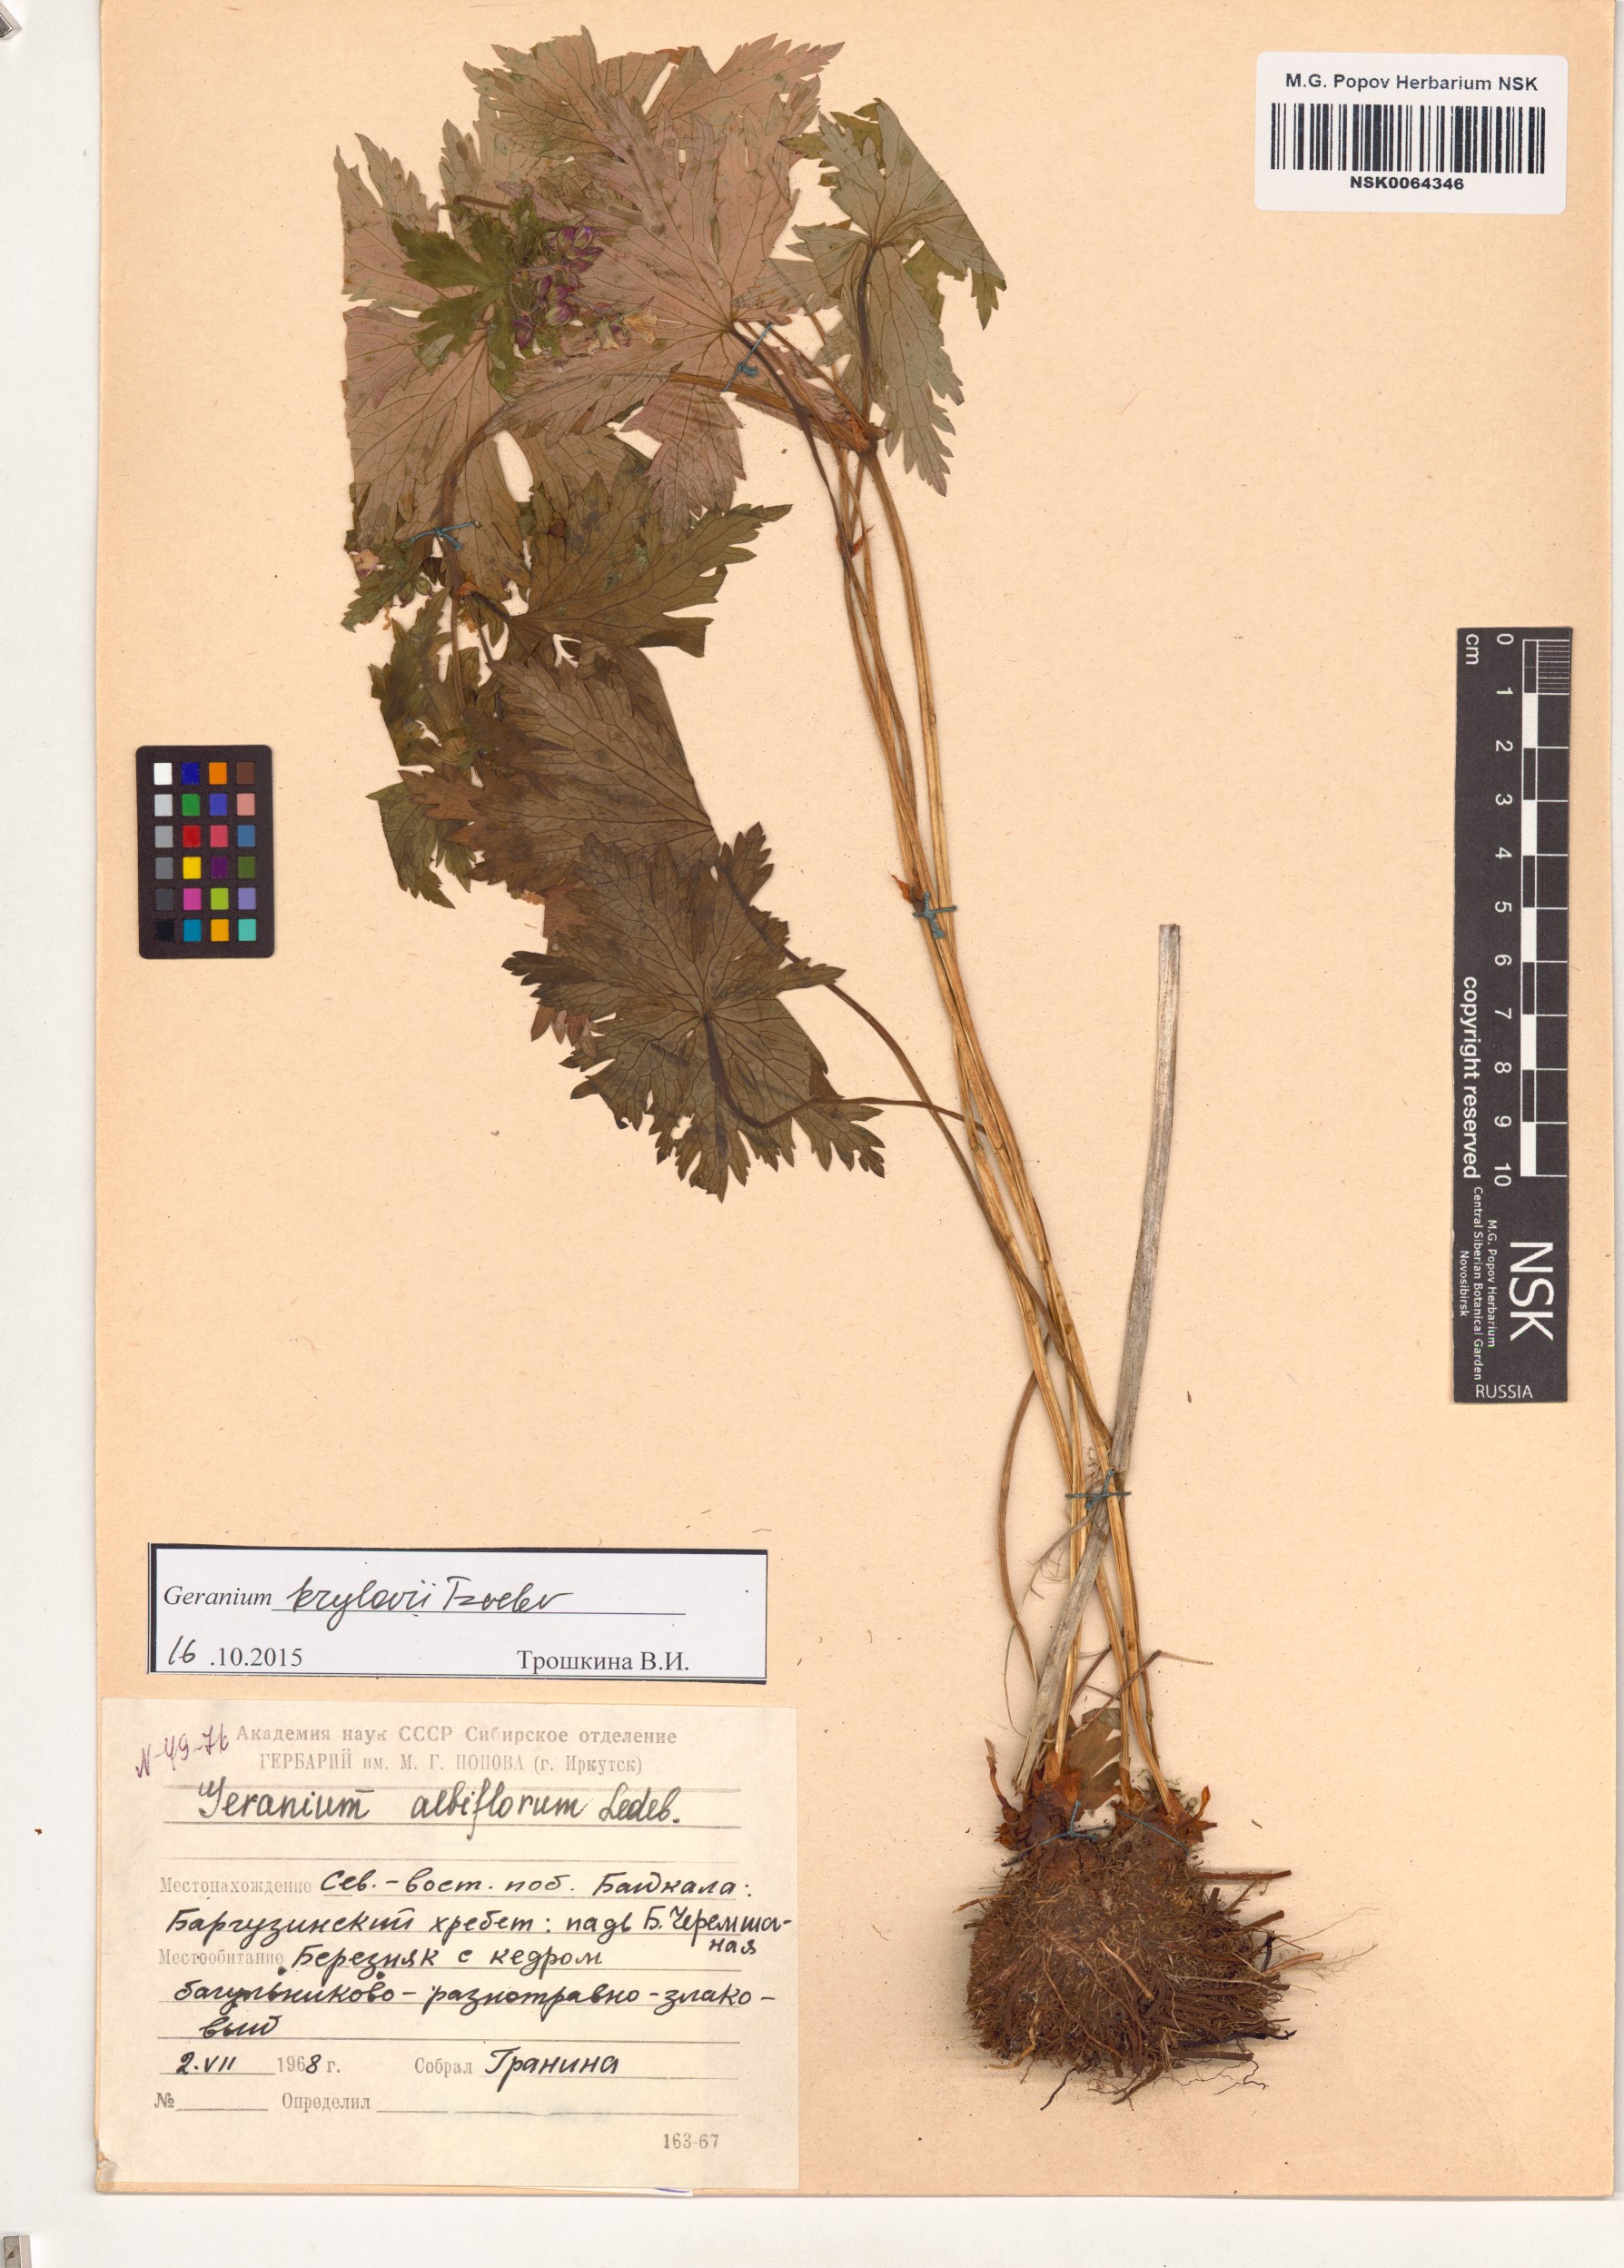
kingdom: Plantae
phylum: Tracheophyta
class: Magnoliopsida
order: Geraniales
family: Geraniaceae
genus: Geranium
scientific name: Geranium sylvaticum
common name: Wood crane's-bill
